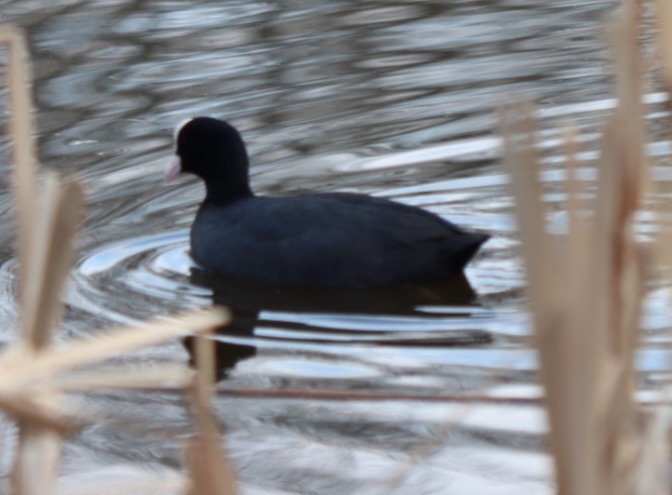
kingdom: Animalia
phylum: Chordata
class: Aves
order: Gruiformes
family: Rallidae
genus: Fulica
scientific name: Fulica atra
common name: Blishøne
